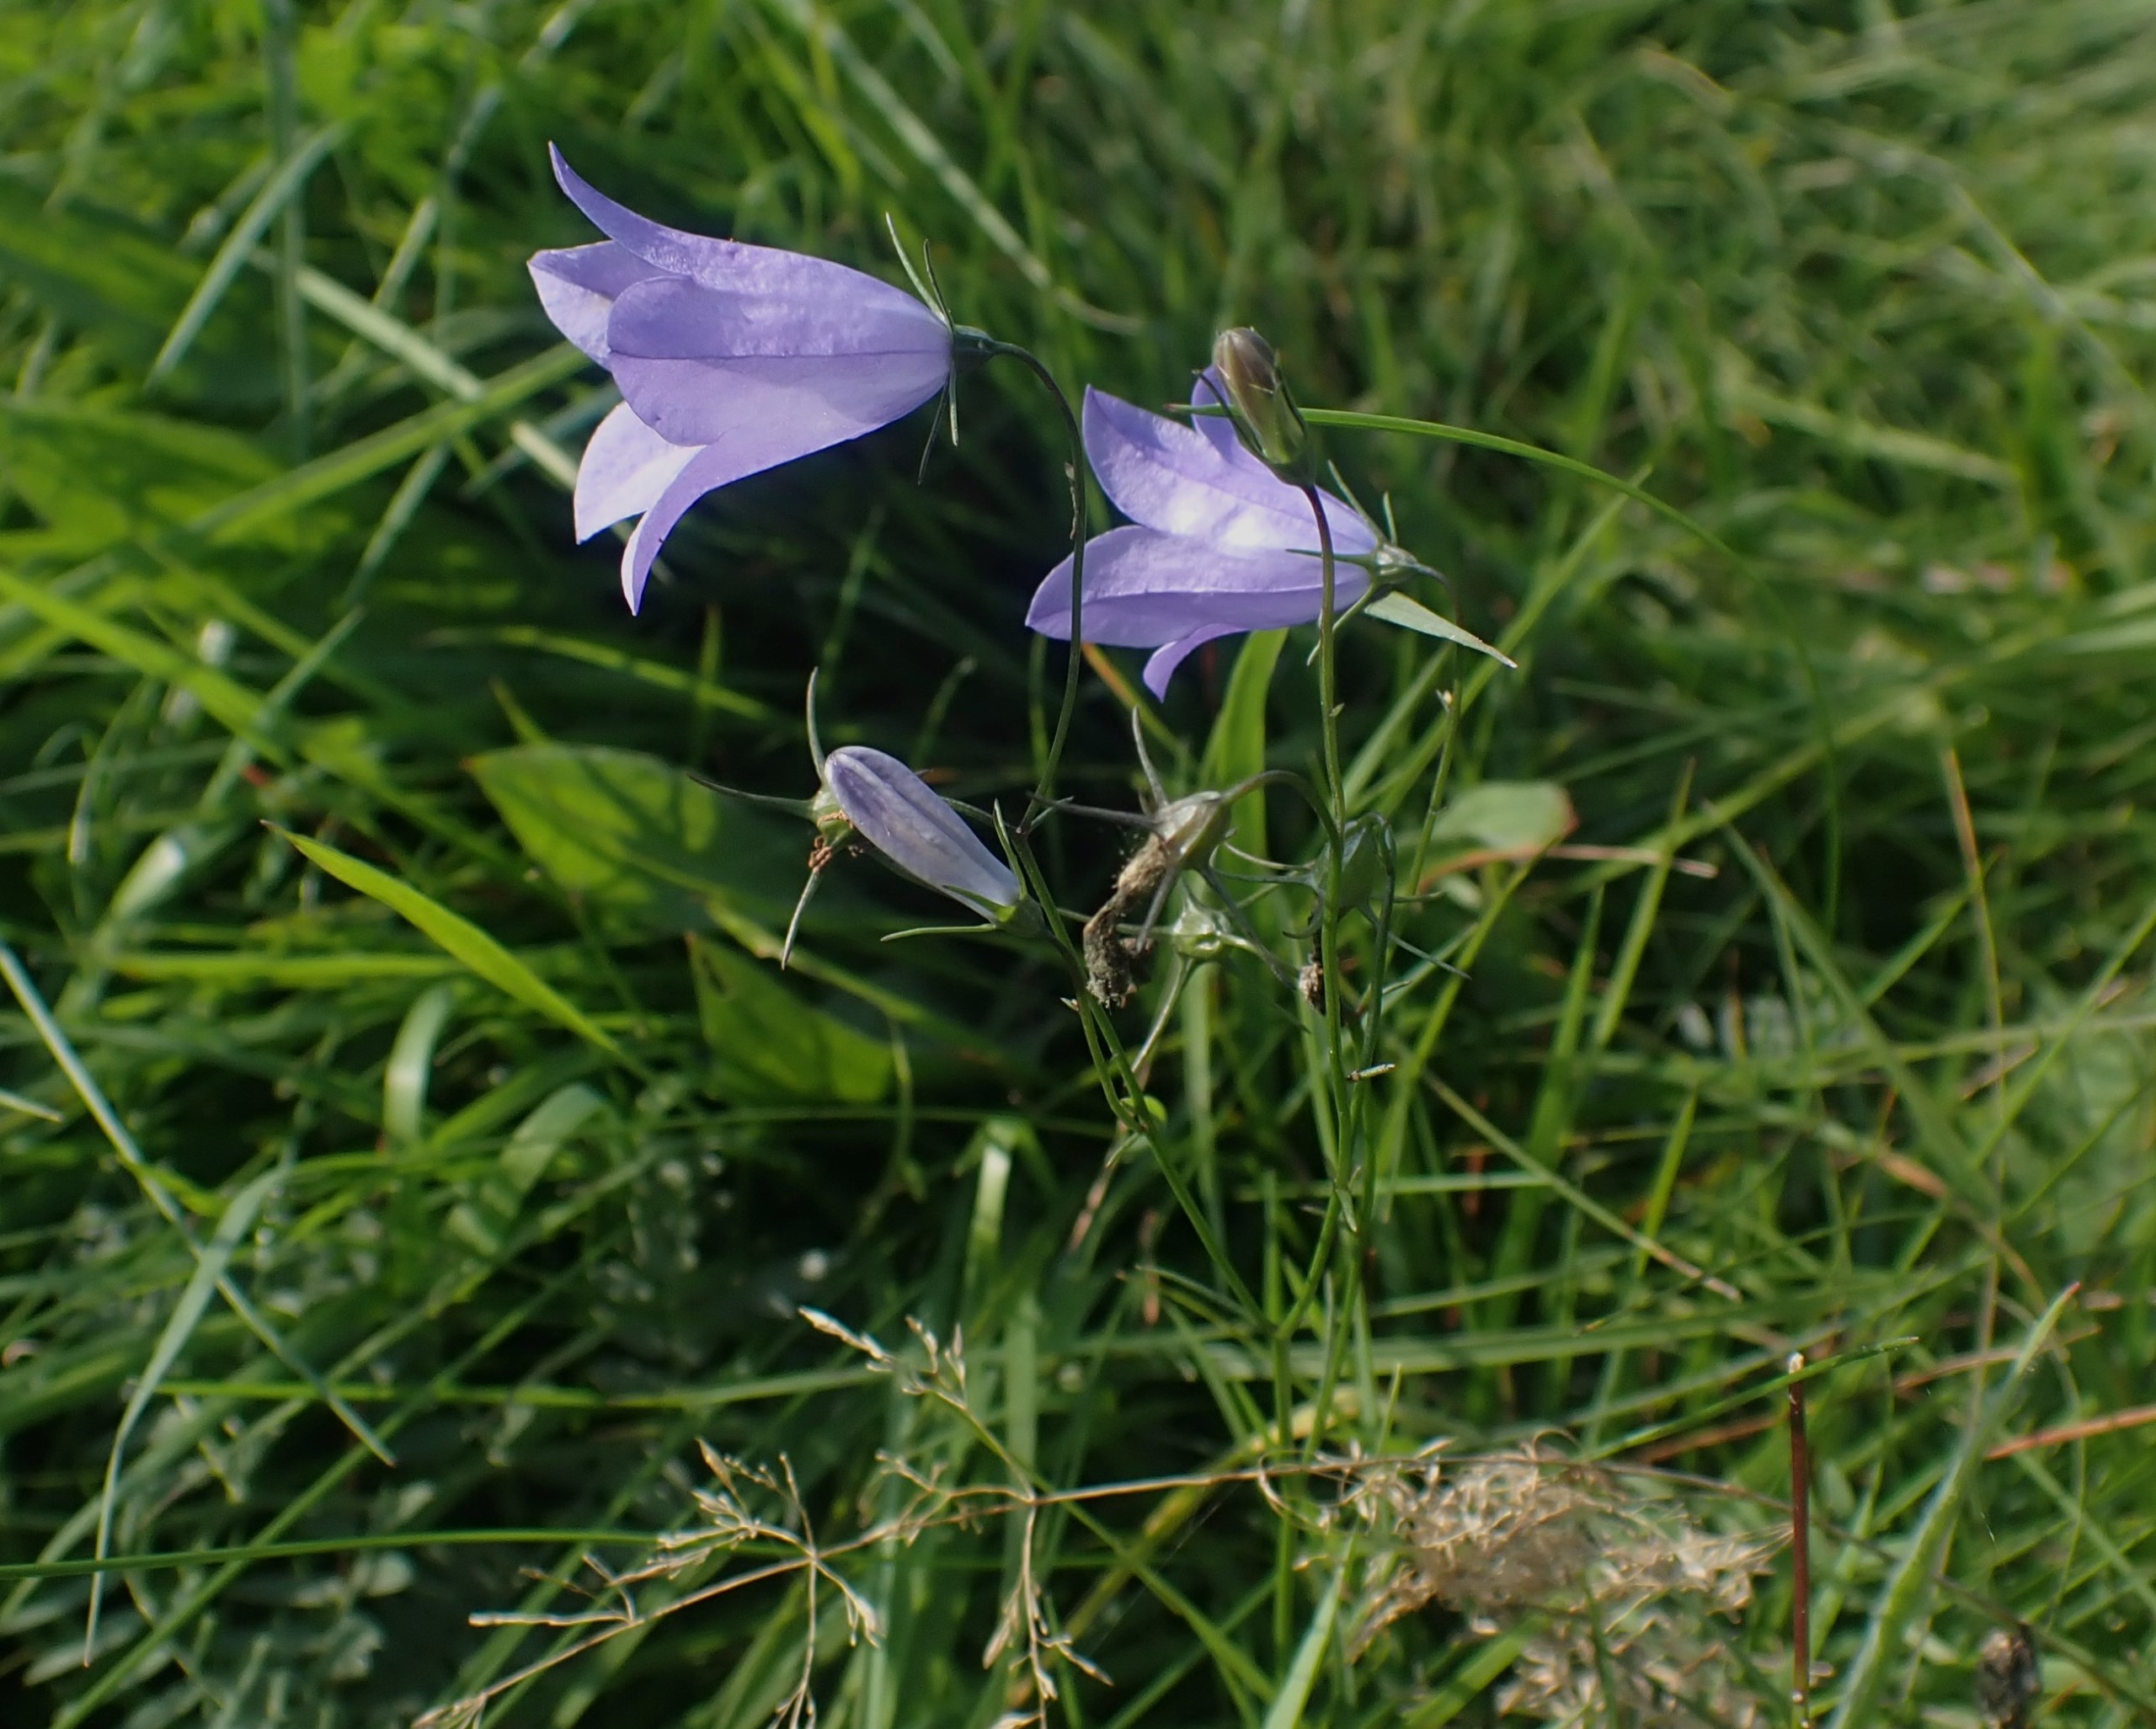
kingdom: Plantae
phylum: Tracheophyta
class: Magnoliopsida
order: Asterales
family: Campanulaceae
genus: Campanula
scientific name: Campanula rotundifolia
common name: Liden klokke
